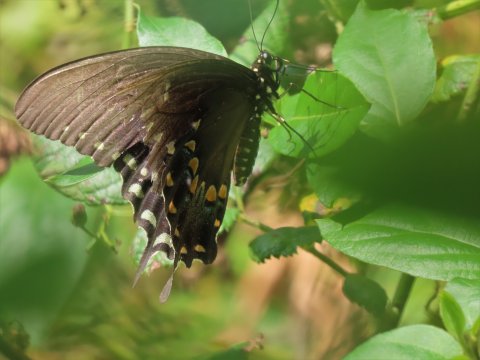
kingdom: Animalia
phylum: Arthropoda
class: Insecta
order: Lepidoptera
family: Papilionidae
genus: Pterourus
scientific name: Pterourus troilus
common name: Spicebush Swallowtail
